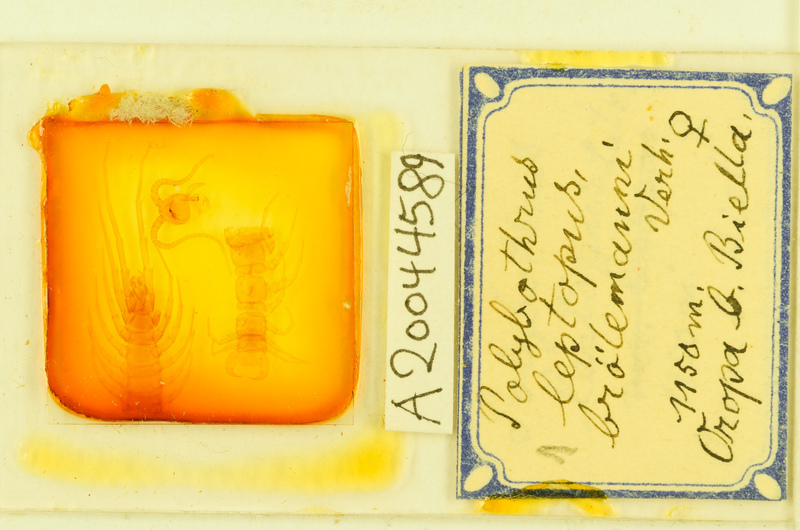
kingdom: Animalia
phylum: Arthropoda
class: Chilopoda
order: Lithobiomorpha
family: Lithobiidae
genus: Polybothrus
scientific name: Polybothrus leptopus
